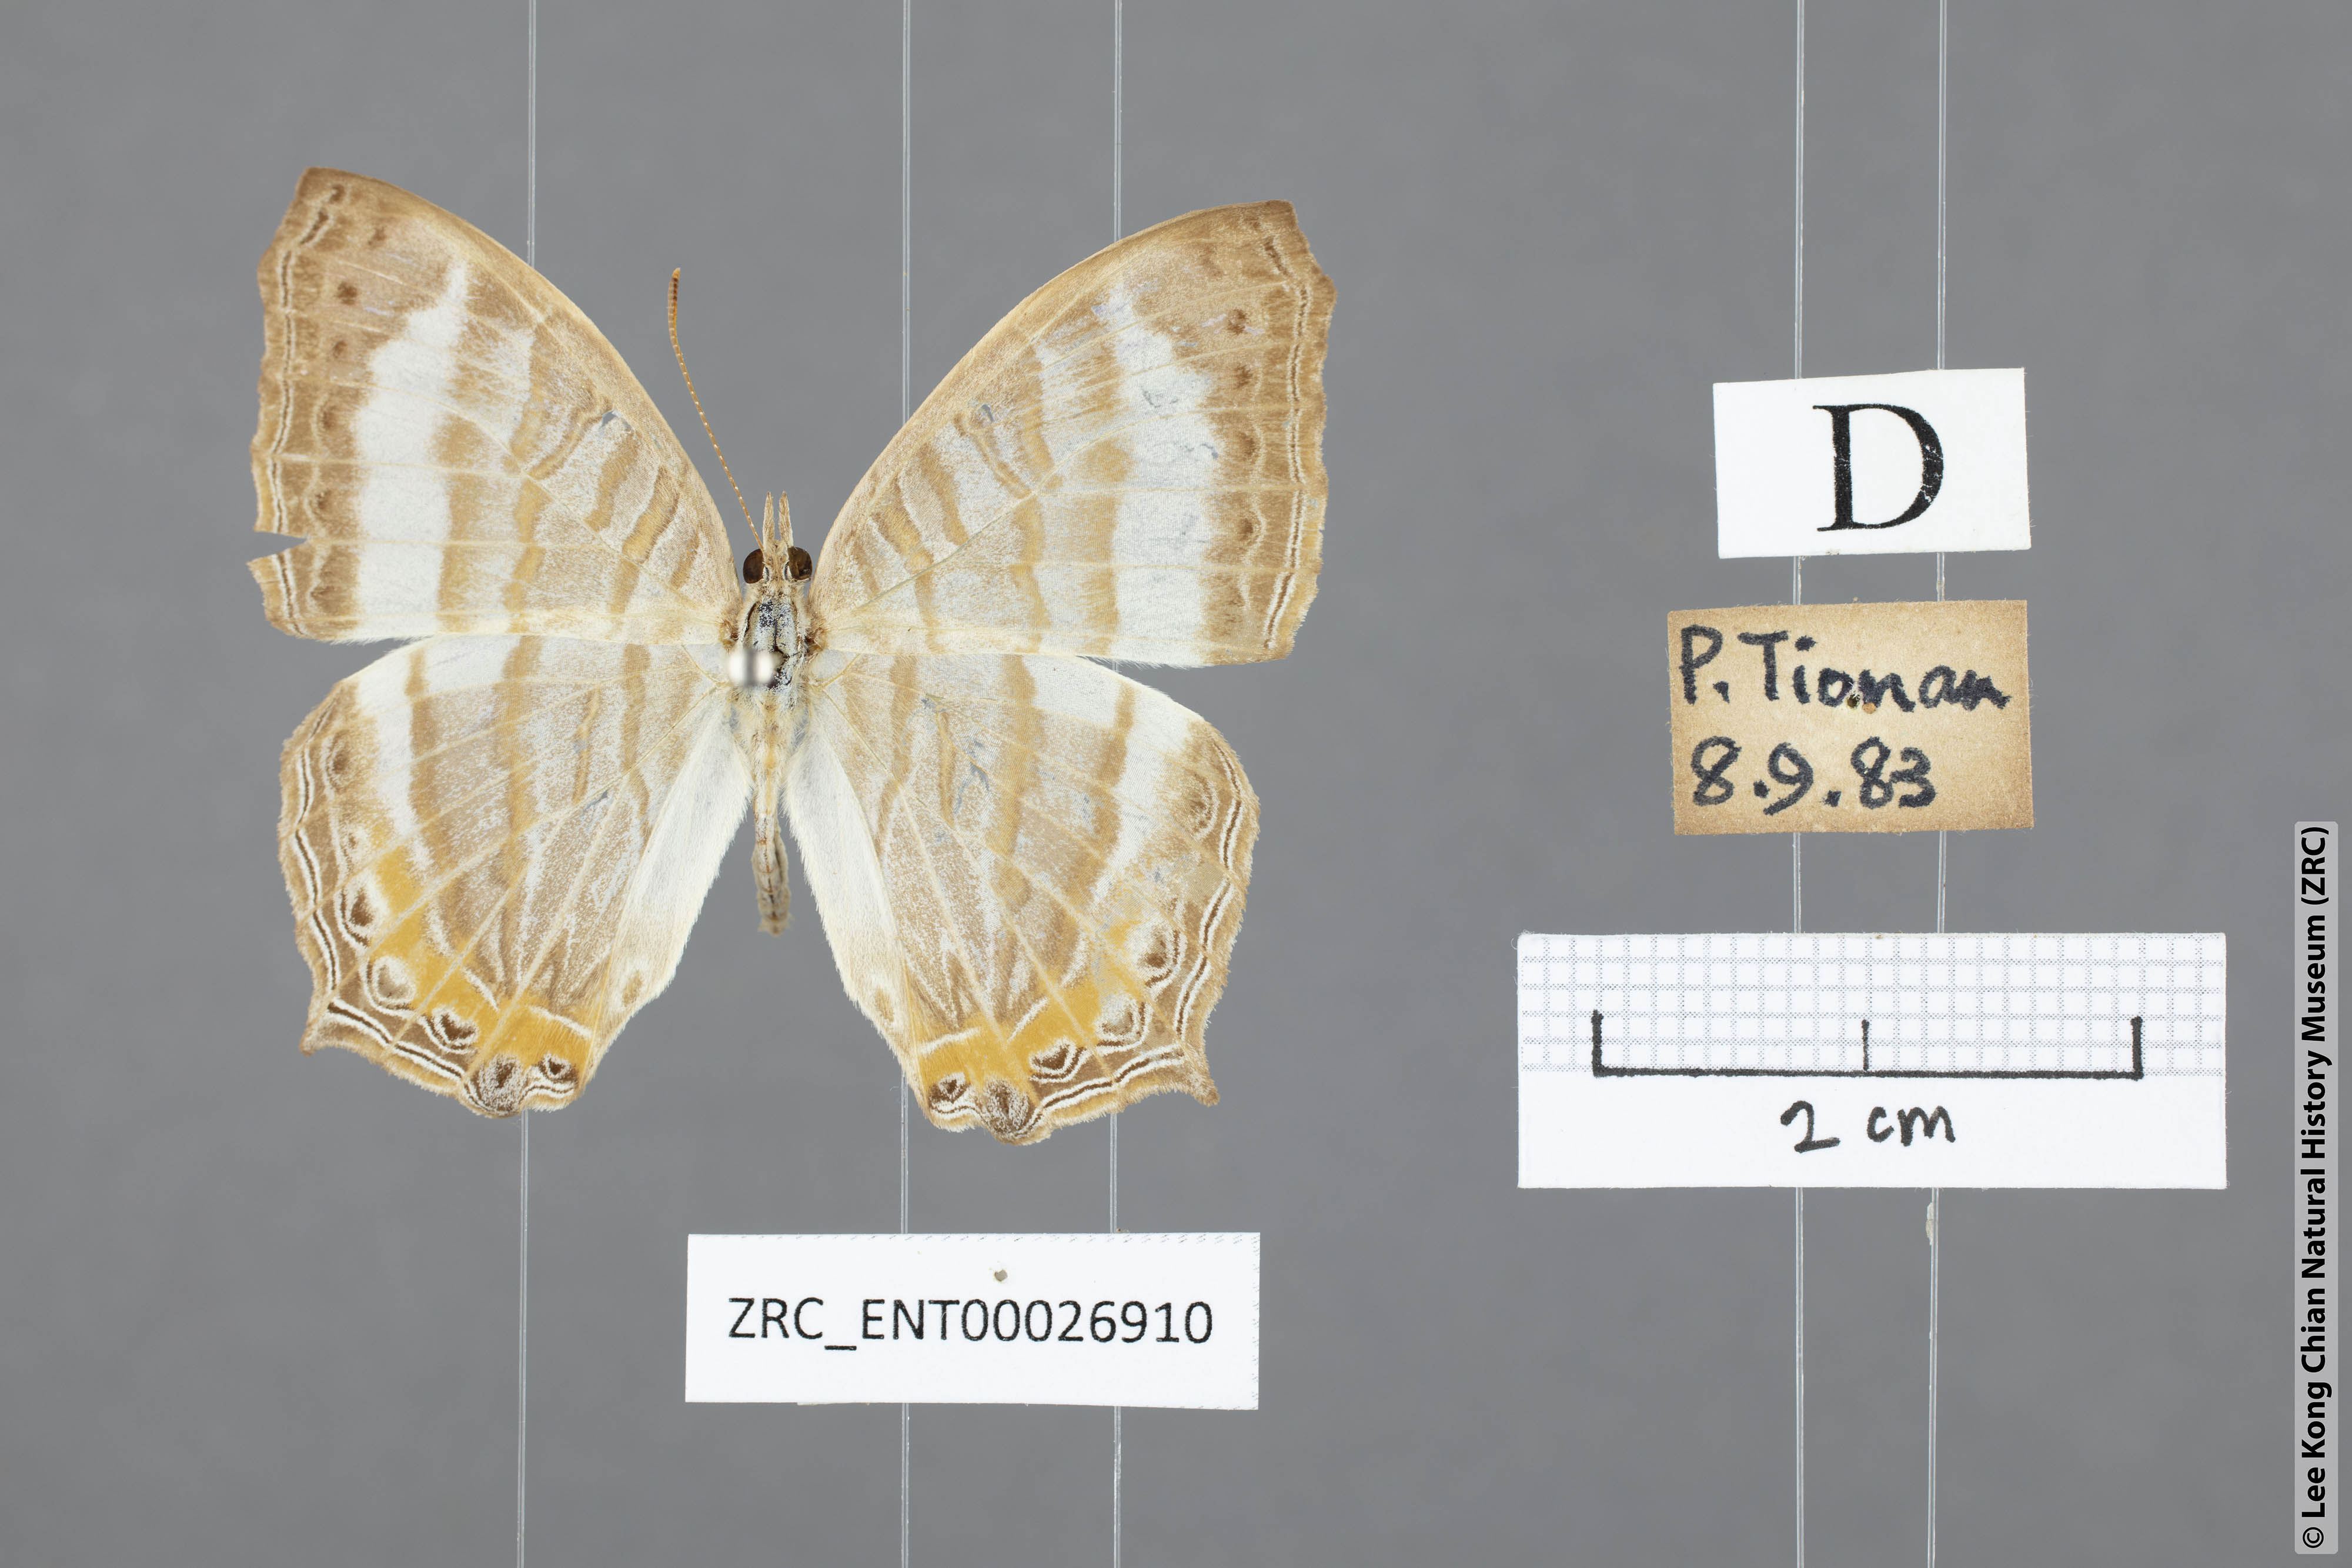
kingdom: Animalia
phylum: Arthropoda
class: Insecta
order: Lepidoptera
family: Nymphalidae
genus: Cyrestis
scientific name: Cyrestis themire
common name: Little mapwing
